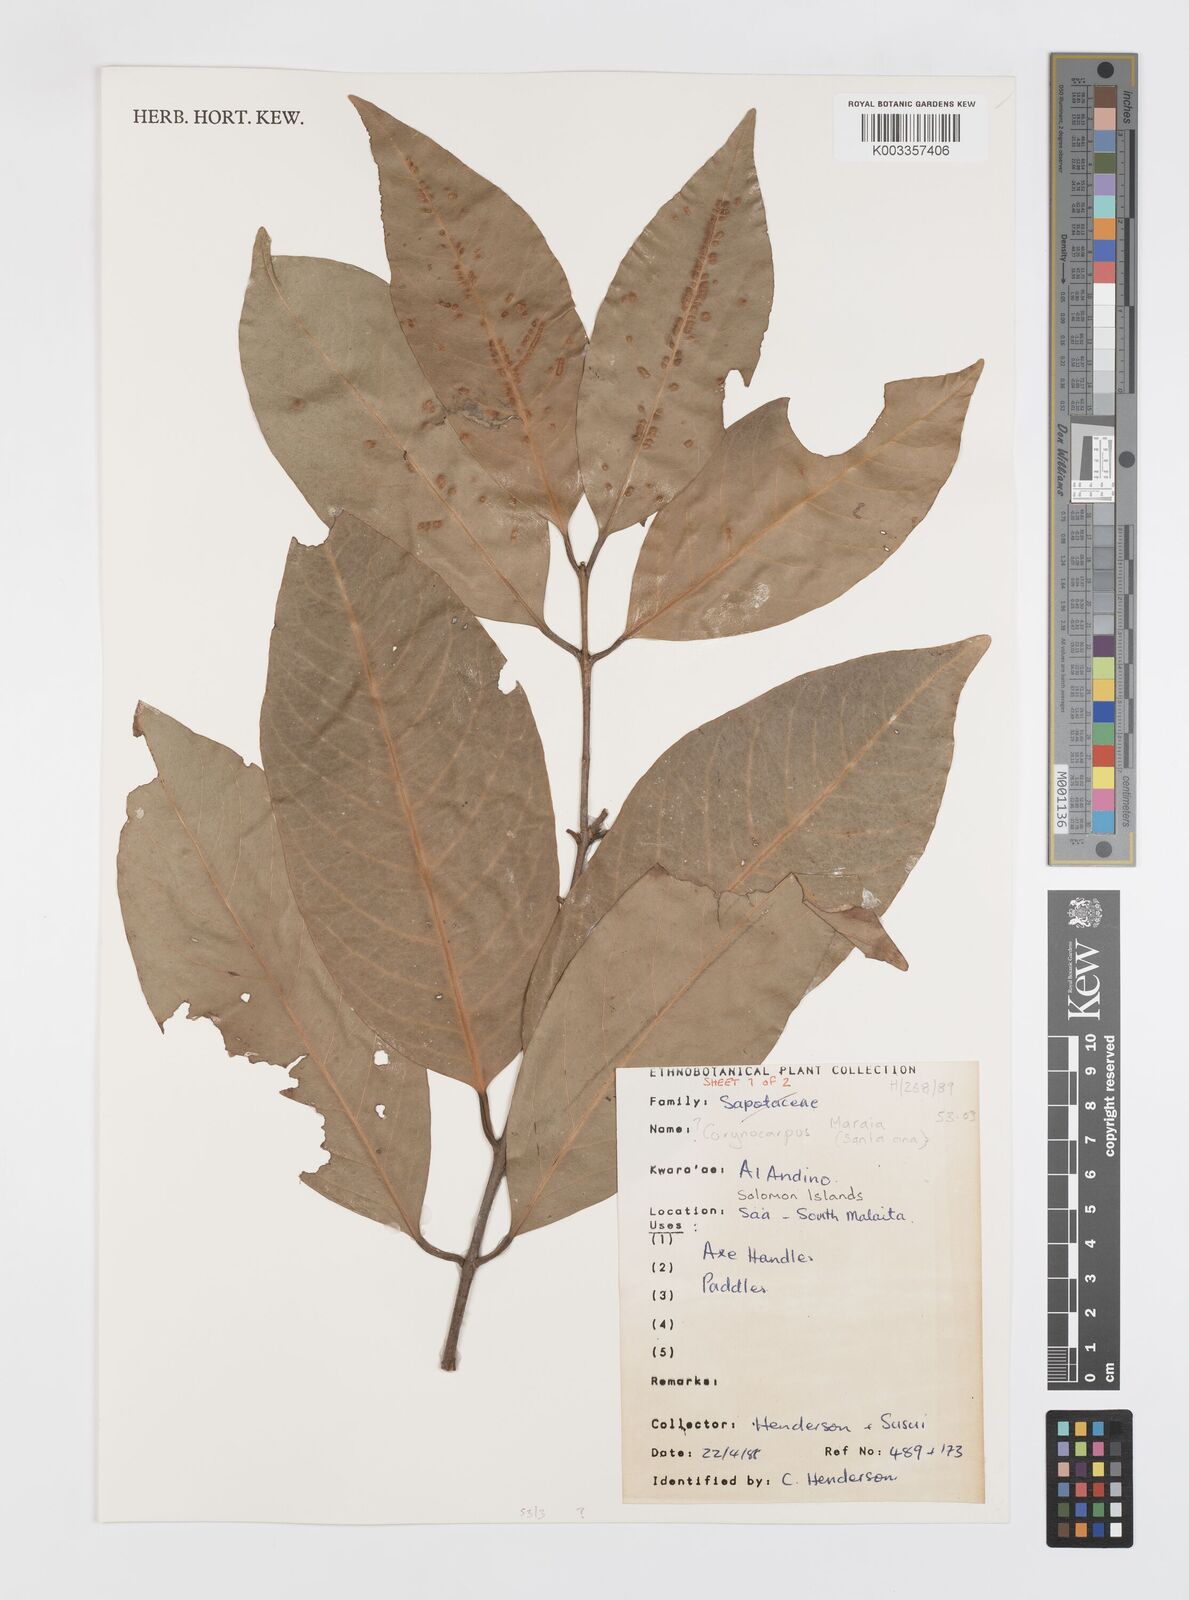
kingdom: Plantae
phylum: Tracheophyta
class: Magnoliopsida
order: Cucurbitales
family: Corynocarpaceae
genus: Corynocarpus
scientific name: Corynocarpus
